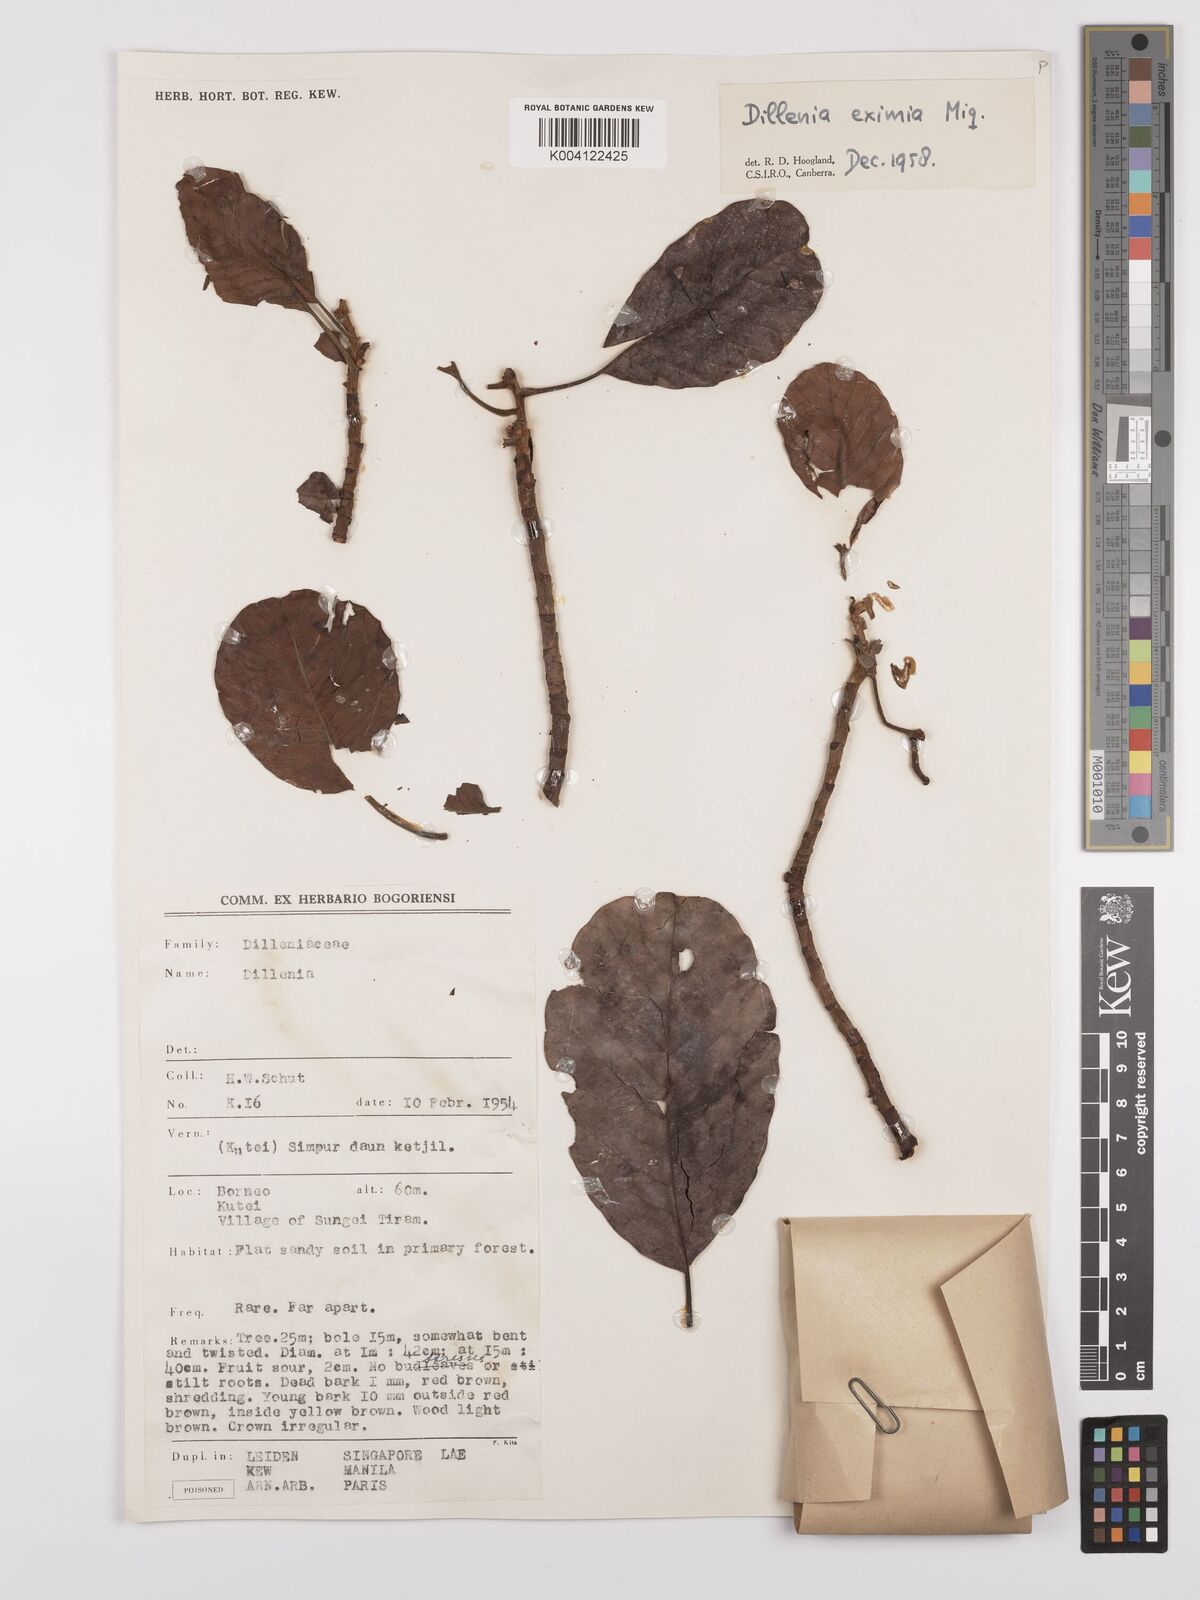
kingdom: Plantae
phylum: Tracheophyta
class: Magnoliopsida
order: Dilleniales
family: Dilleniaceae
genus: Dillenia
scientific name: Dillenia grandifolia
